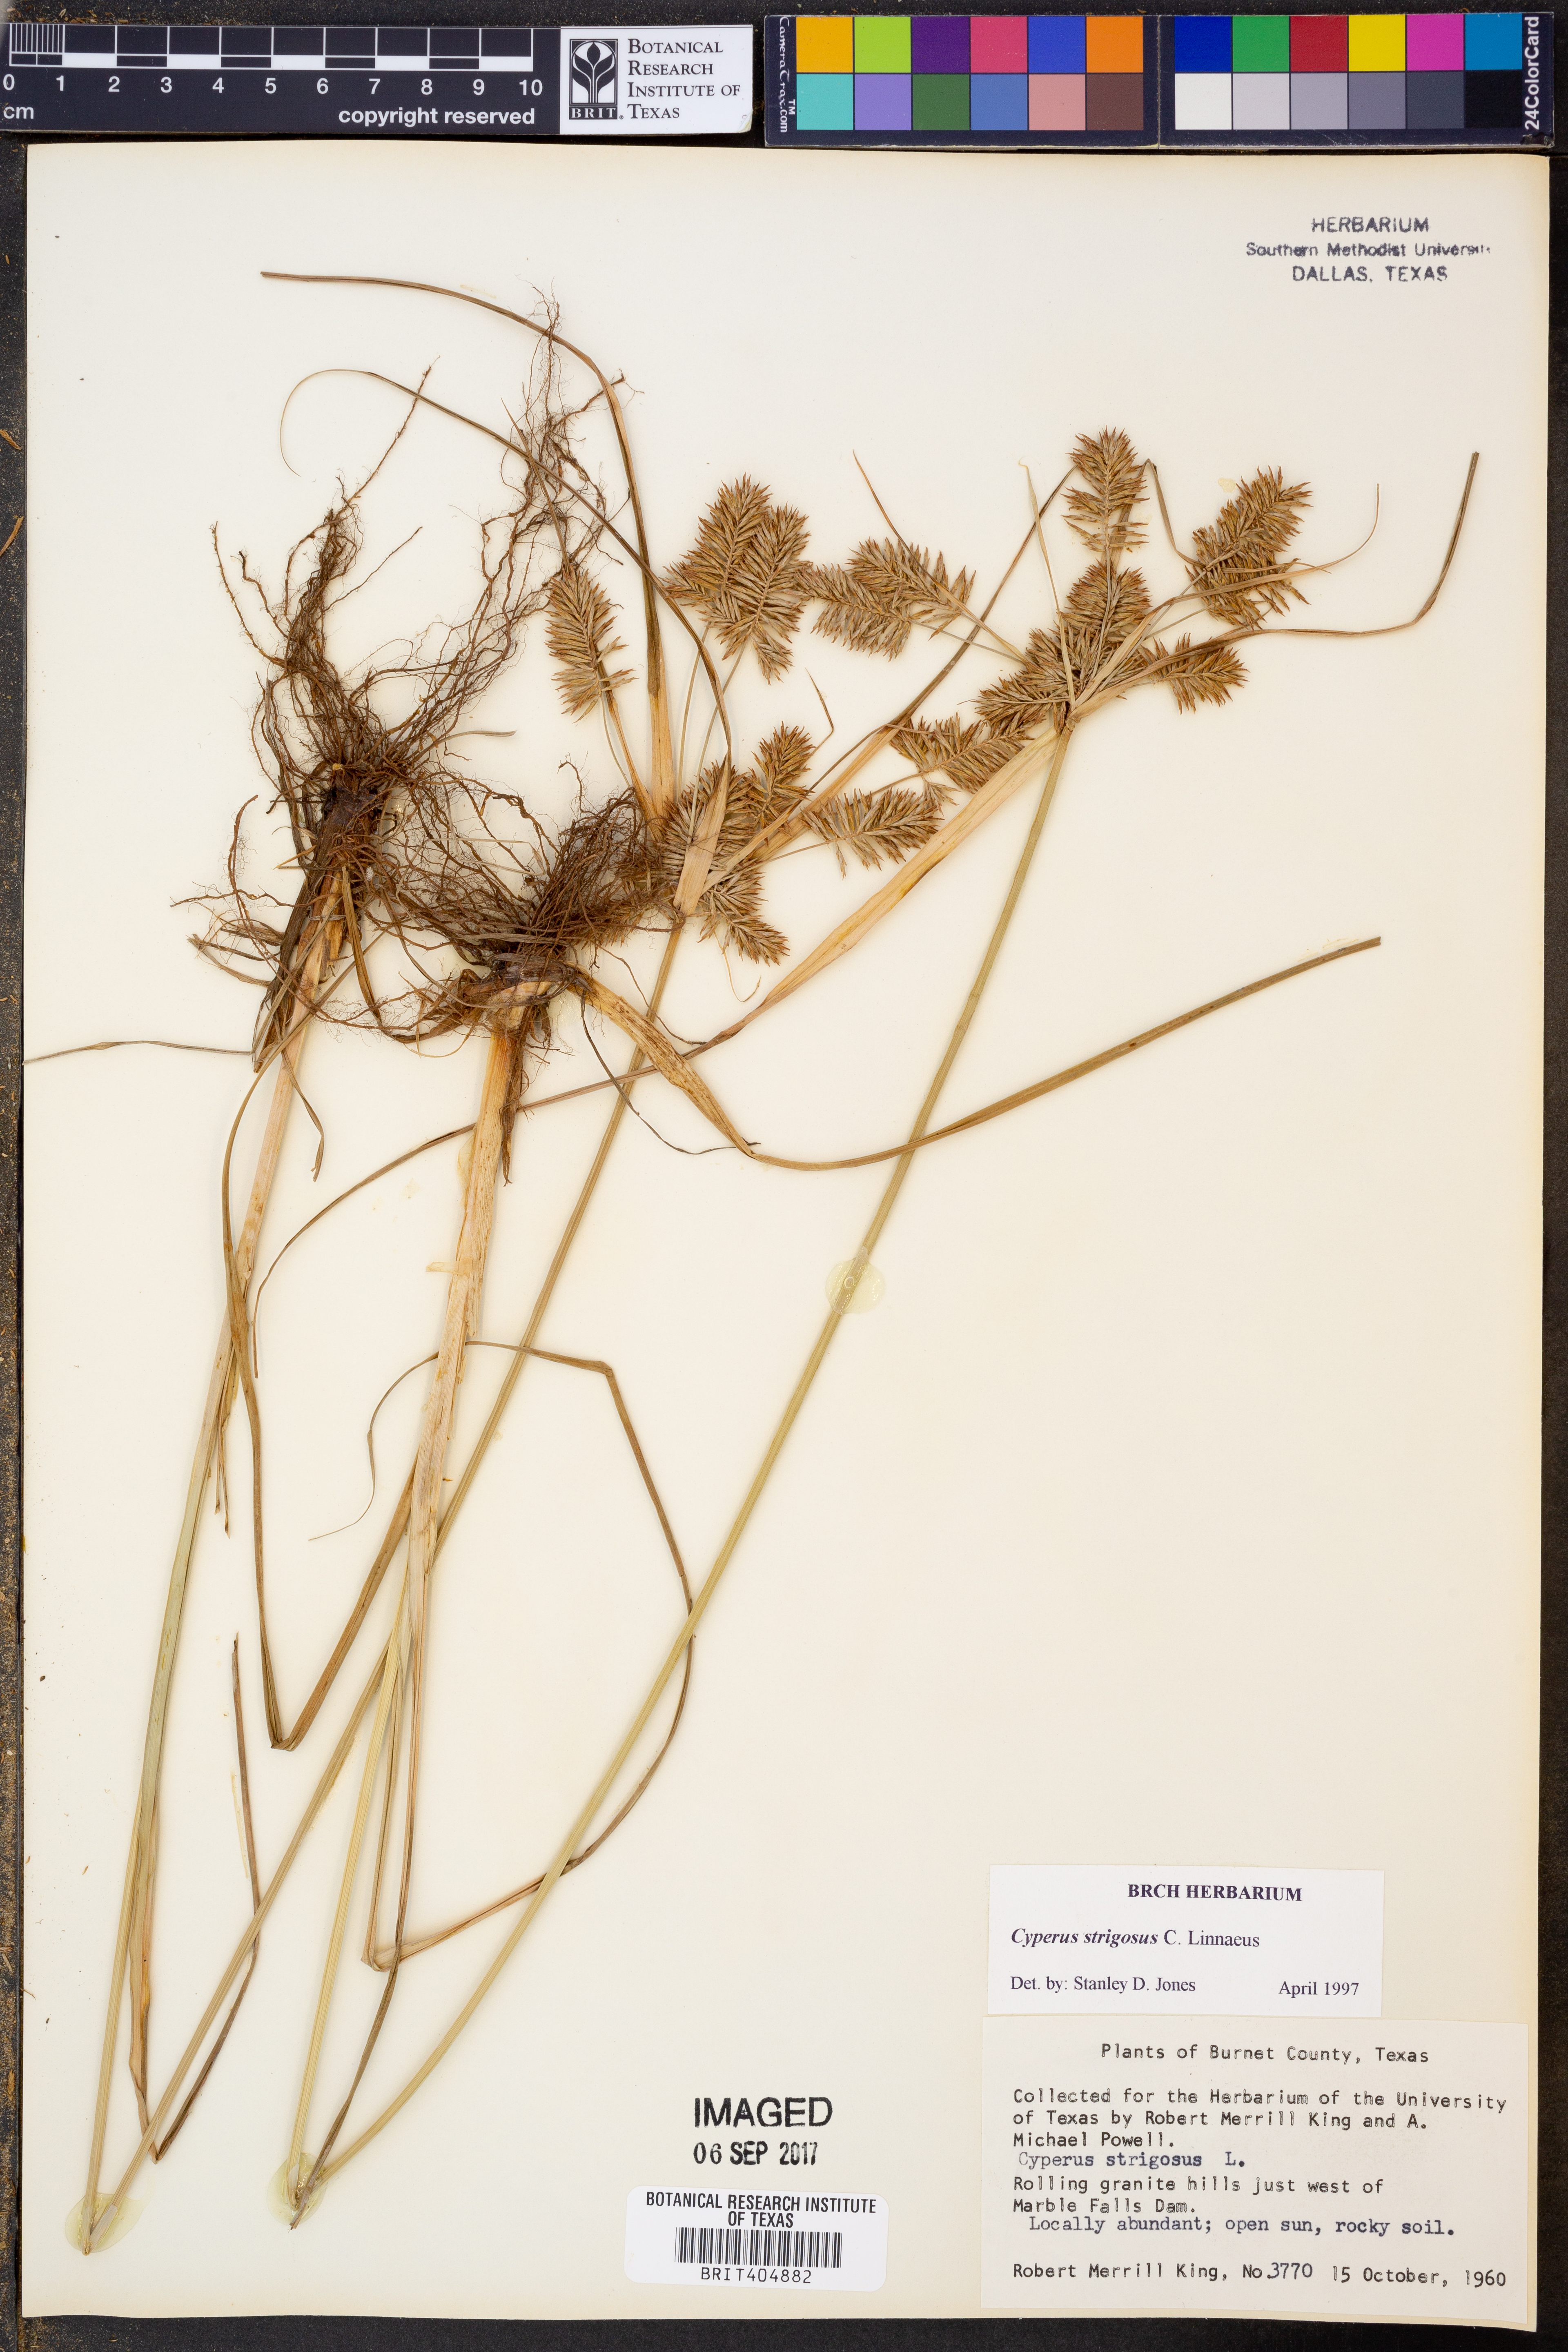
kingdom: Plantae
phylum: Tracheophyta
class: Liliopsida
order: Poales
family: Cyperaceae
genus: Cyperus
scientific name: Cyperus strigosus
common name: False nutsedge
